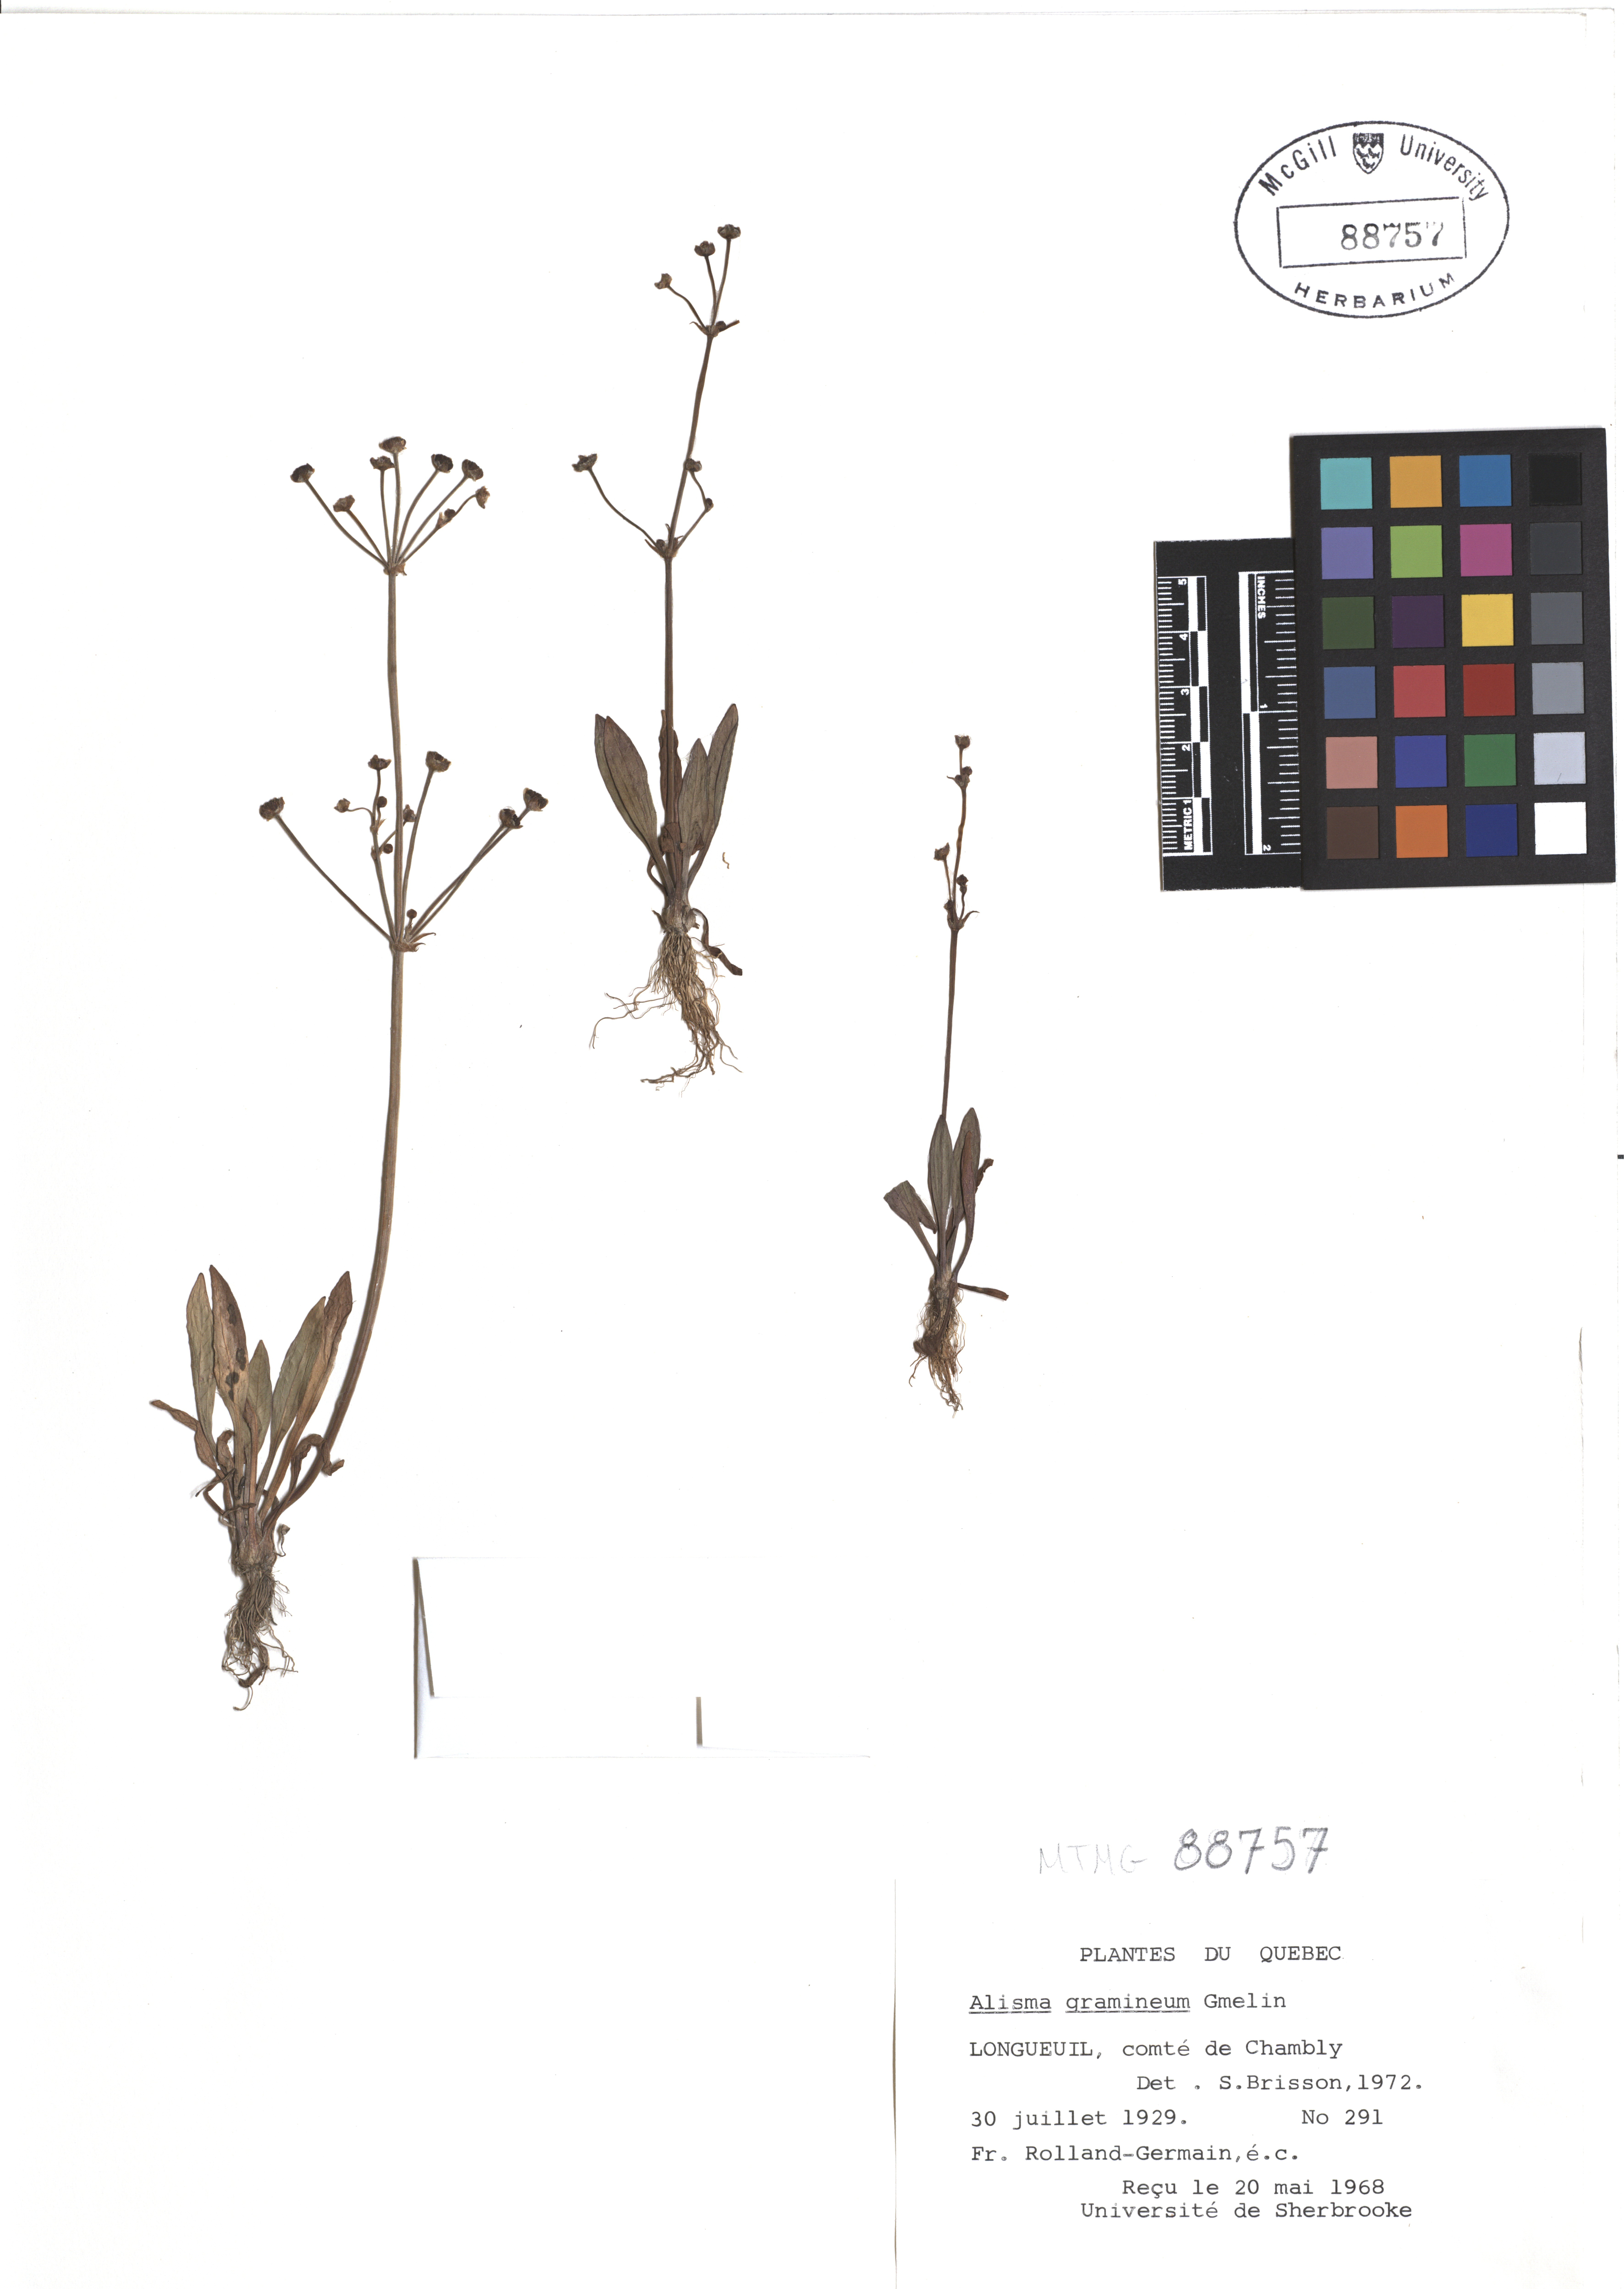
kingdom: Plantae
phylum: Tracheophyta
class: Liliopsida
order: Alismatales
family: Alismataceae
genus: Alisma
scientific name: Alisma gramineum
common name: Ribbon-leaved water-plantain
